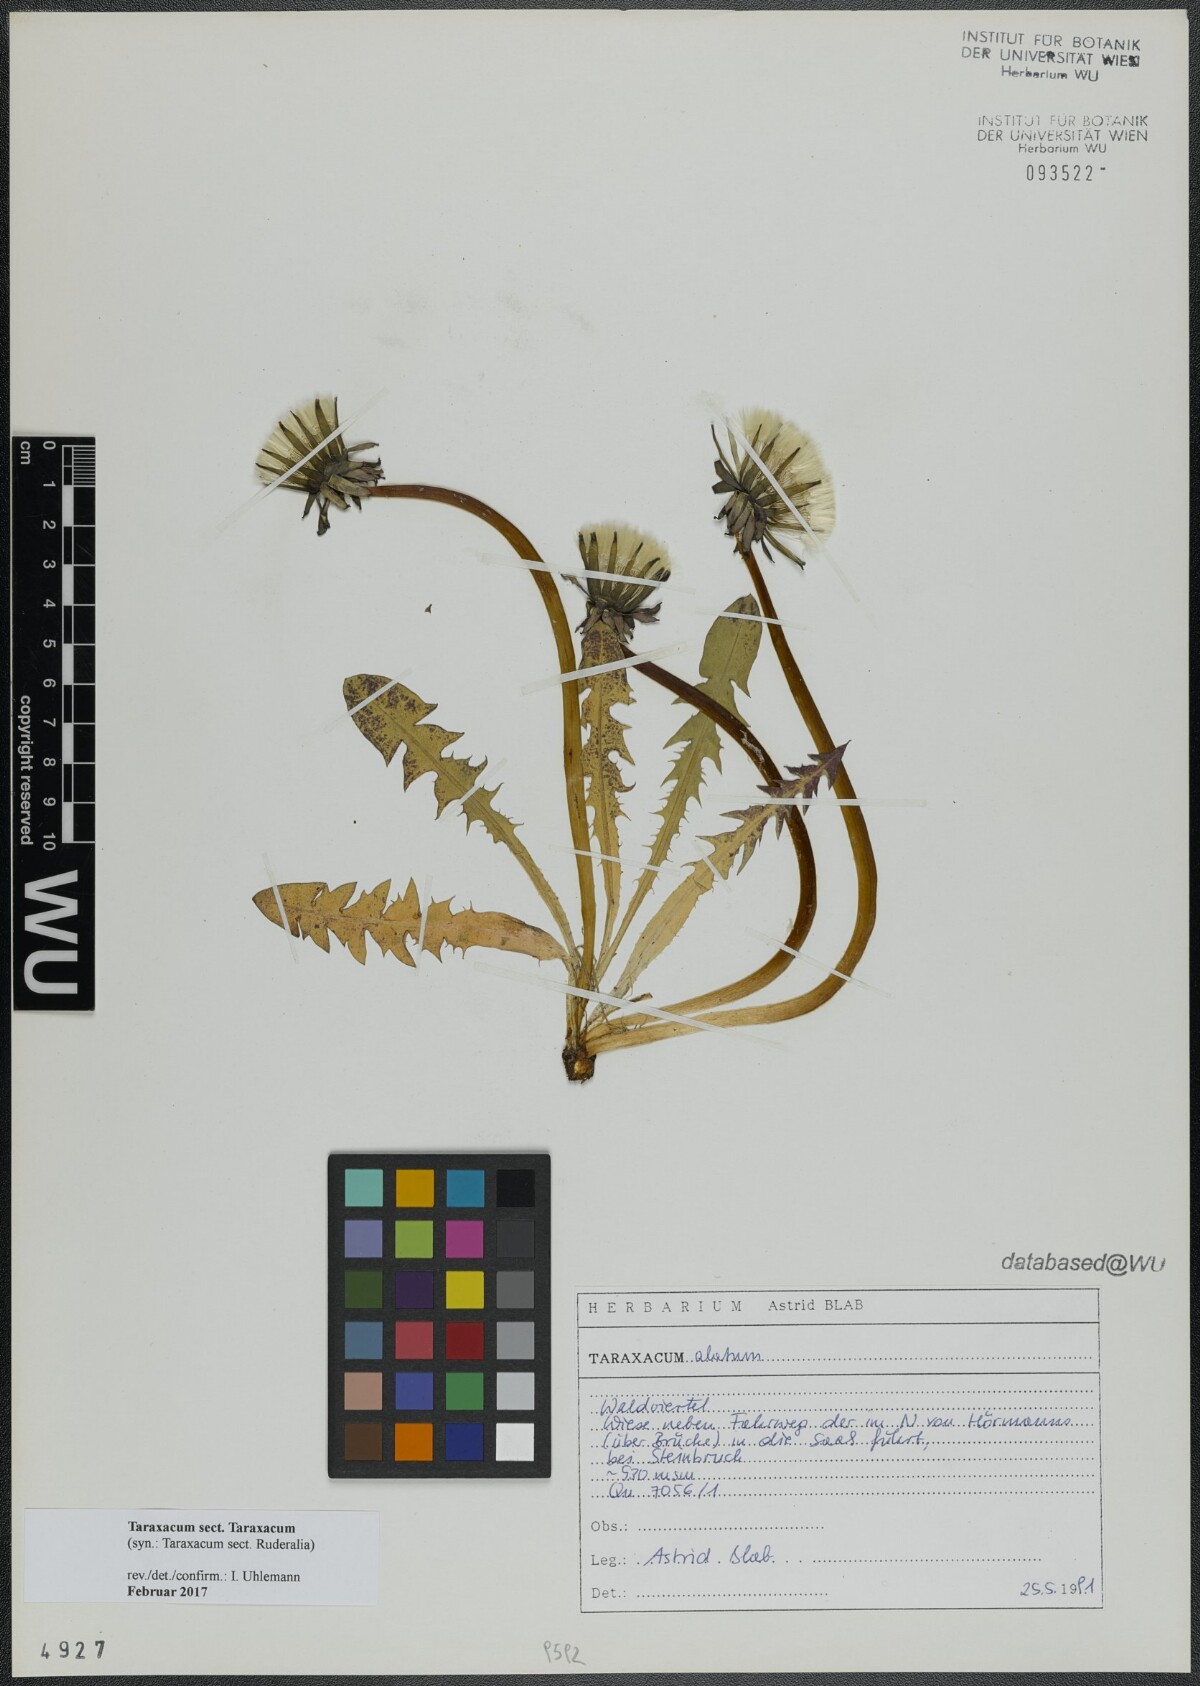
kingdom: Plantae
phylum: Tracheophyta
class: Magnoliopsida
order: Asterales
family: Asteraceae
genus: Taraxacum
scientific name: Taraxacum
